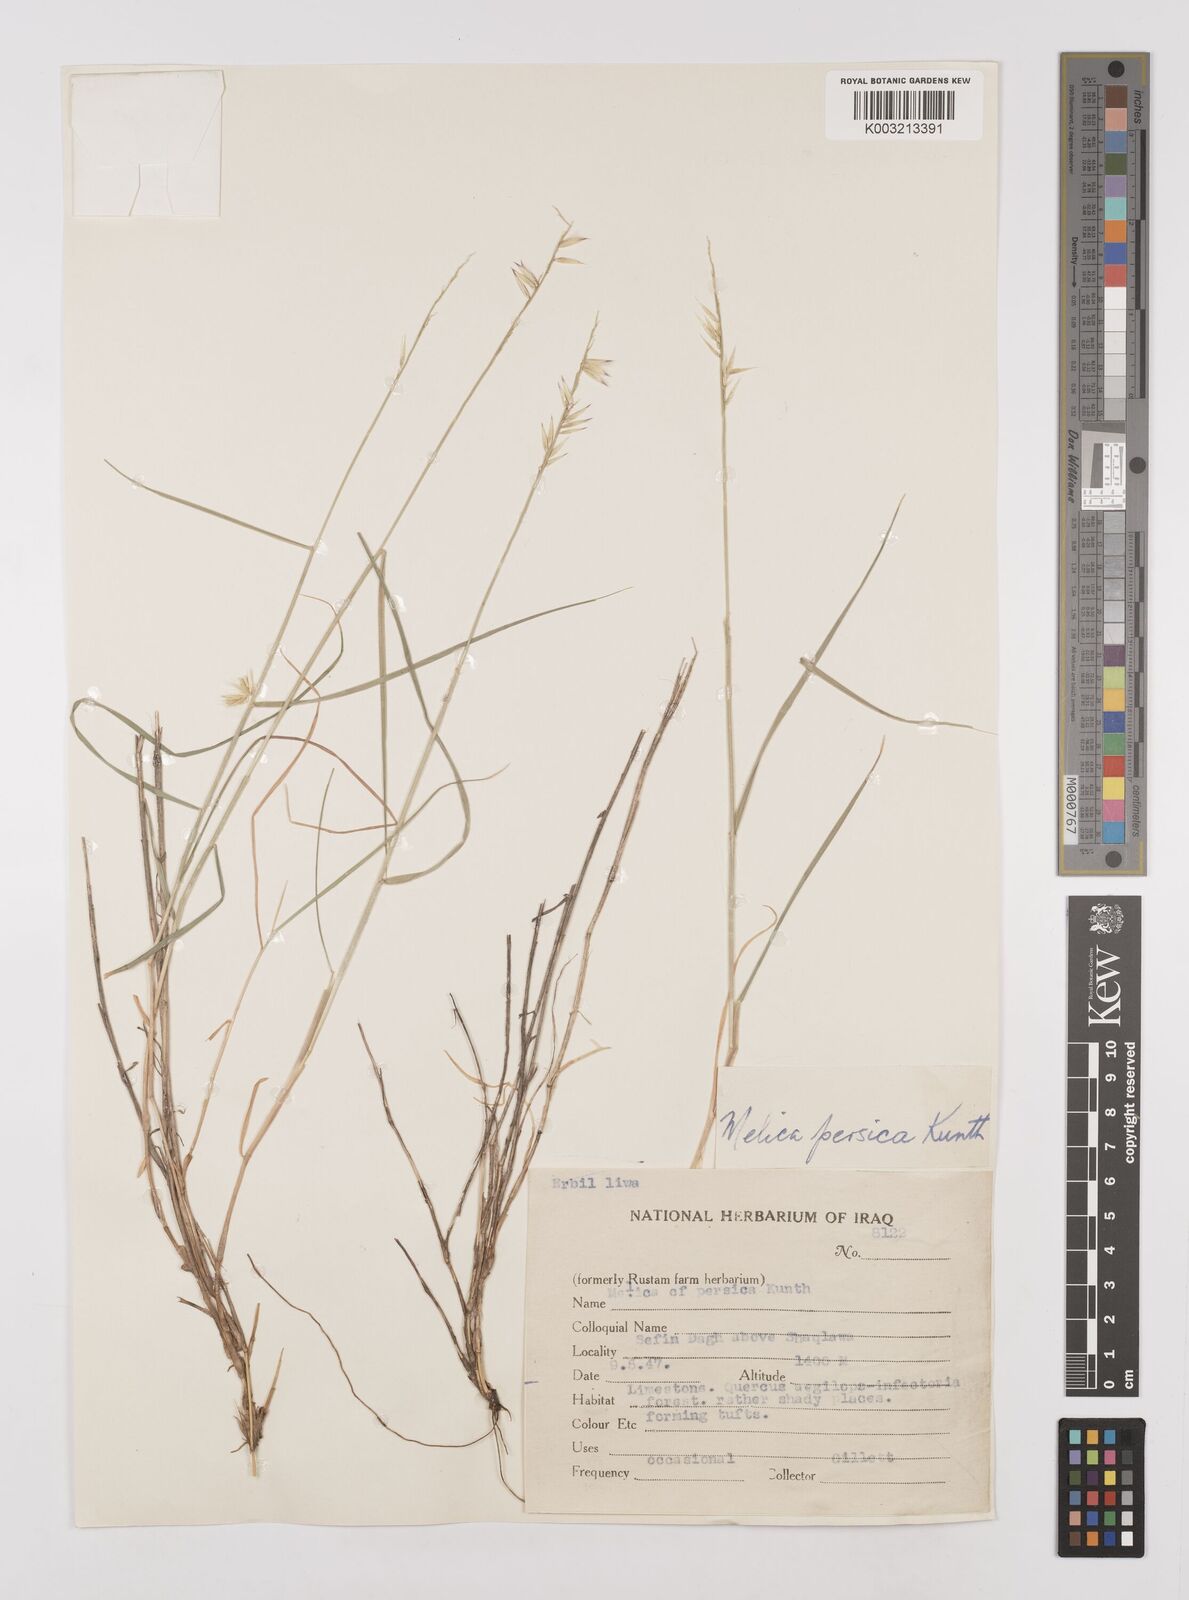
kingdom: Plantae
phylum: Tracheophyta
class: Liliopsida
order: Poales
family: Poaceae
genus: Melica
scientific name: Melica persica
